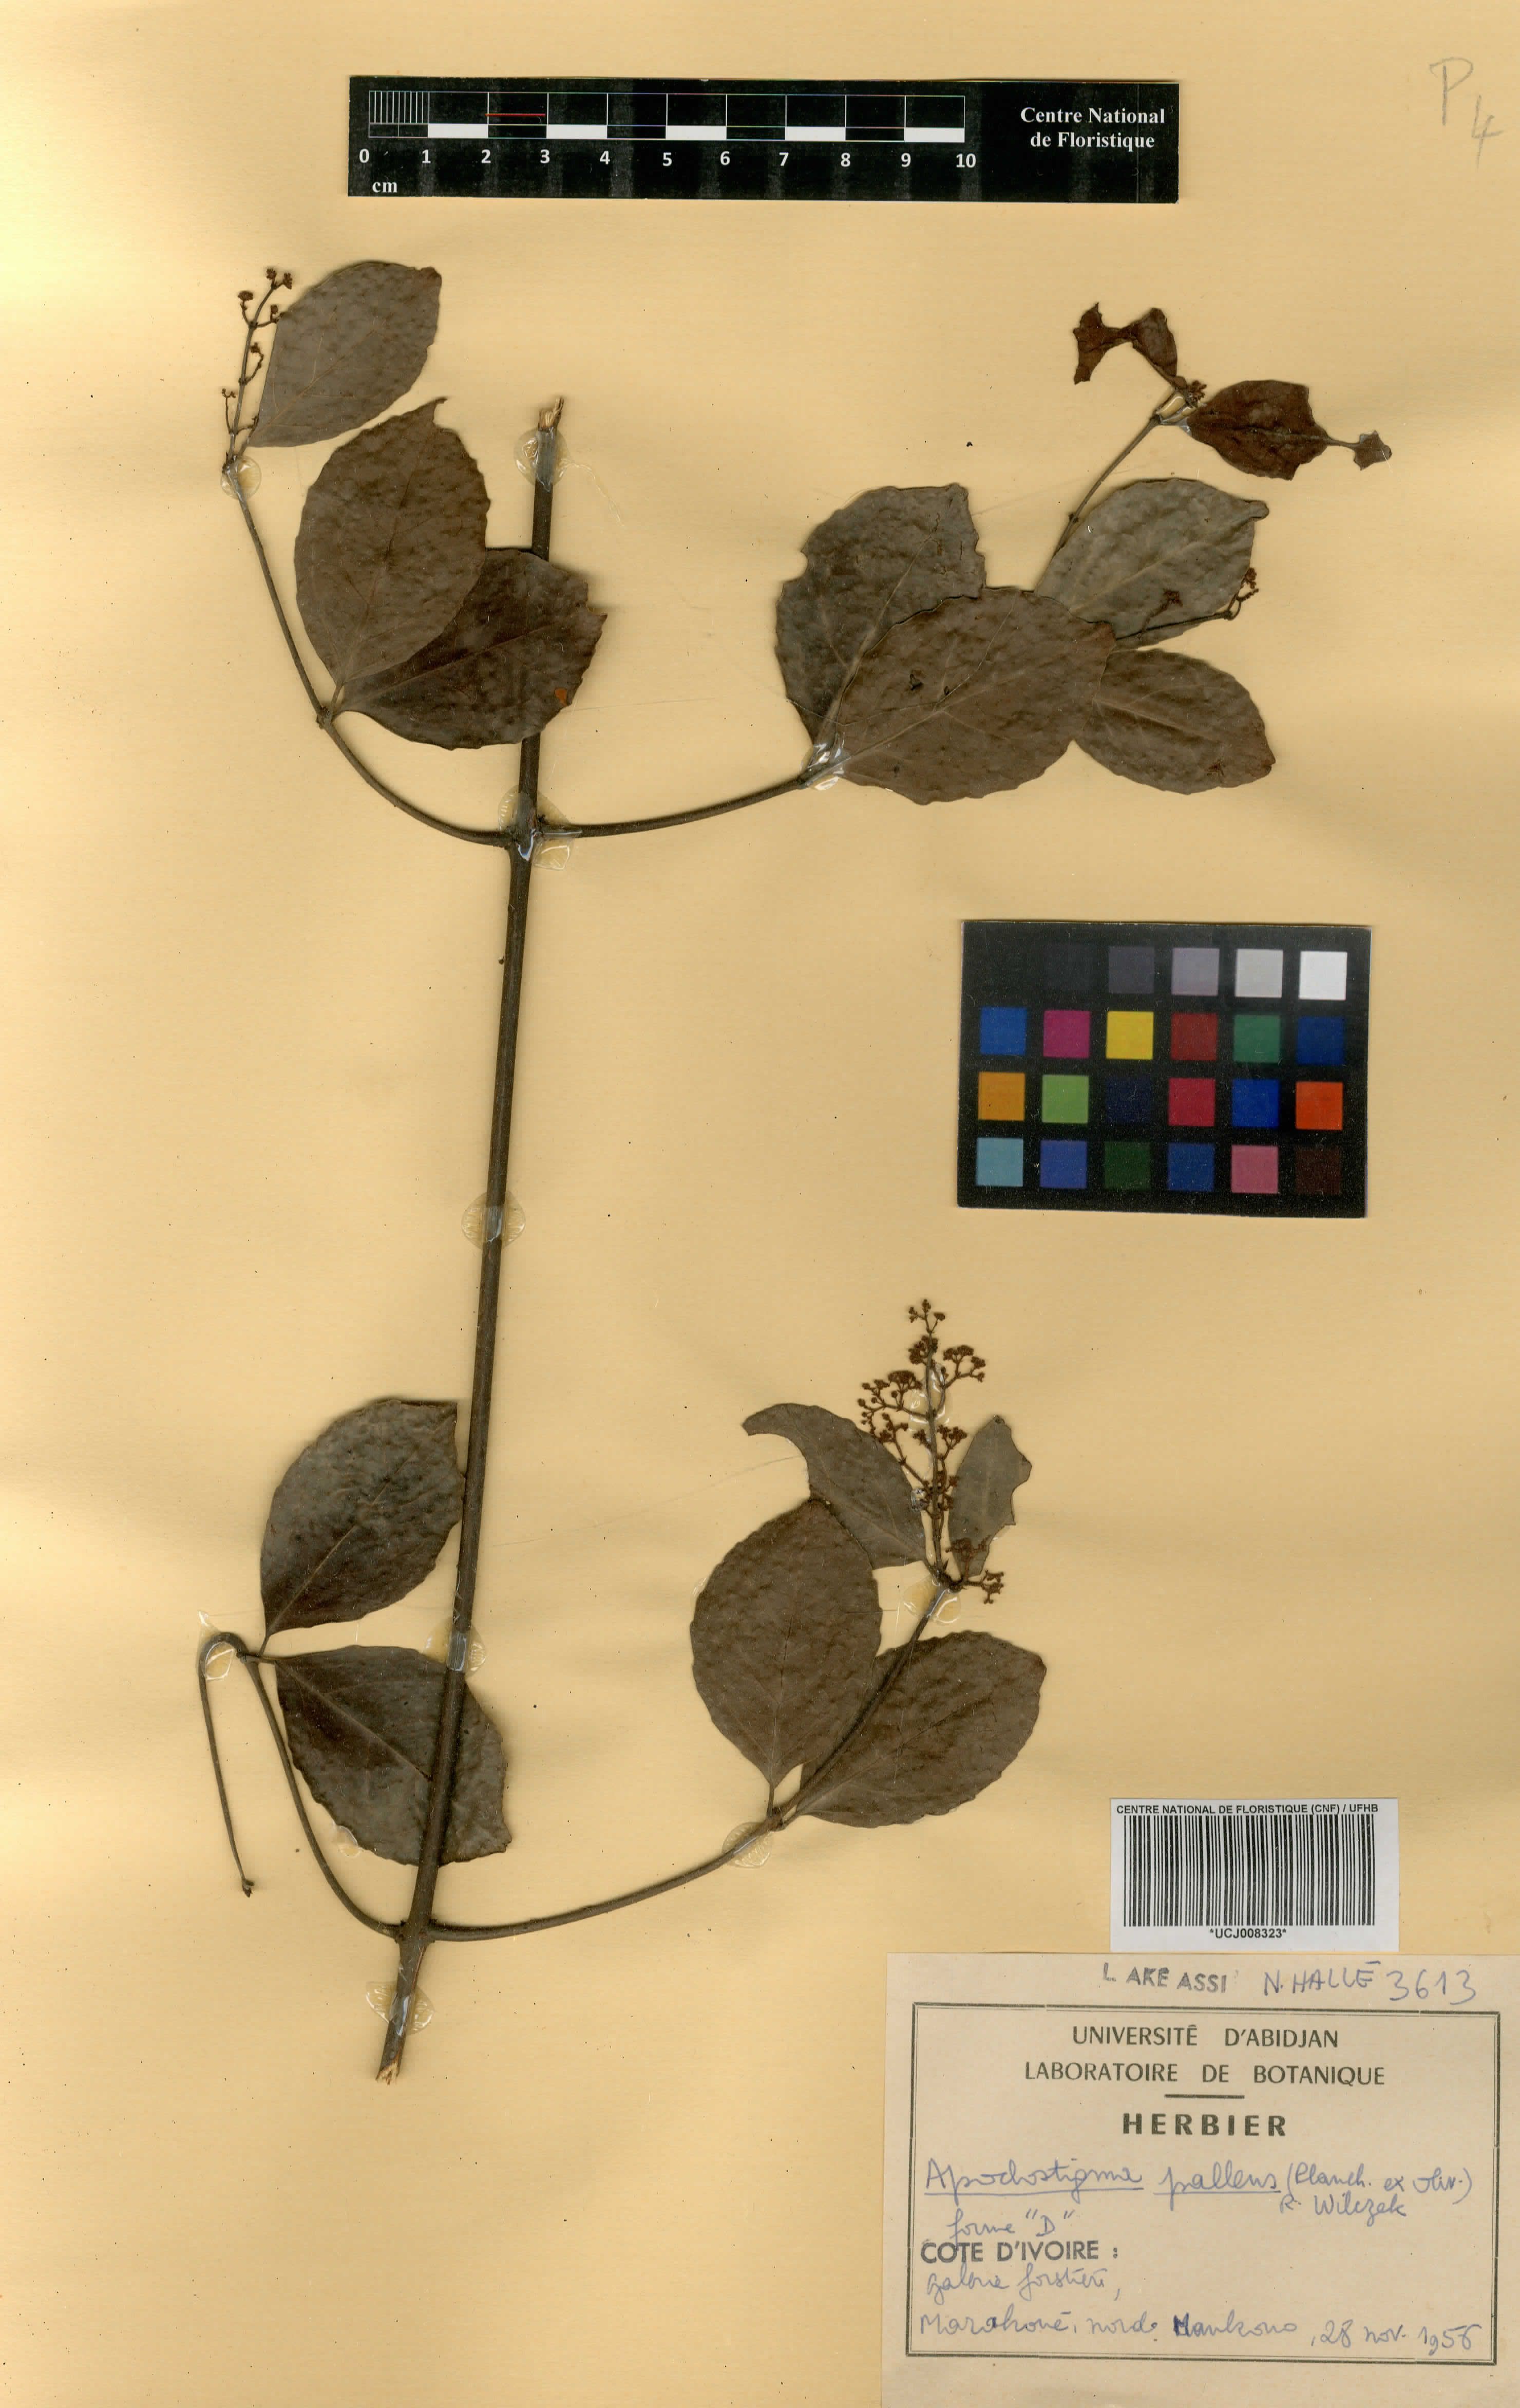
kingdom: Plantae
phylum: Tracheophyta
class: Magnoliopsida
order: Celastrales
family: Celastraceae
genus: Apodostigma
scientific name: Apodostigma pallens
